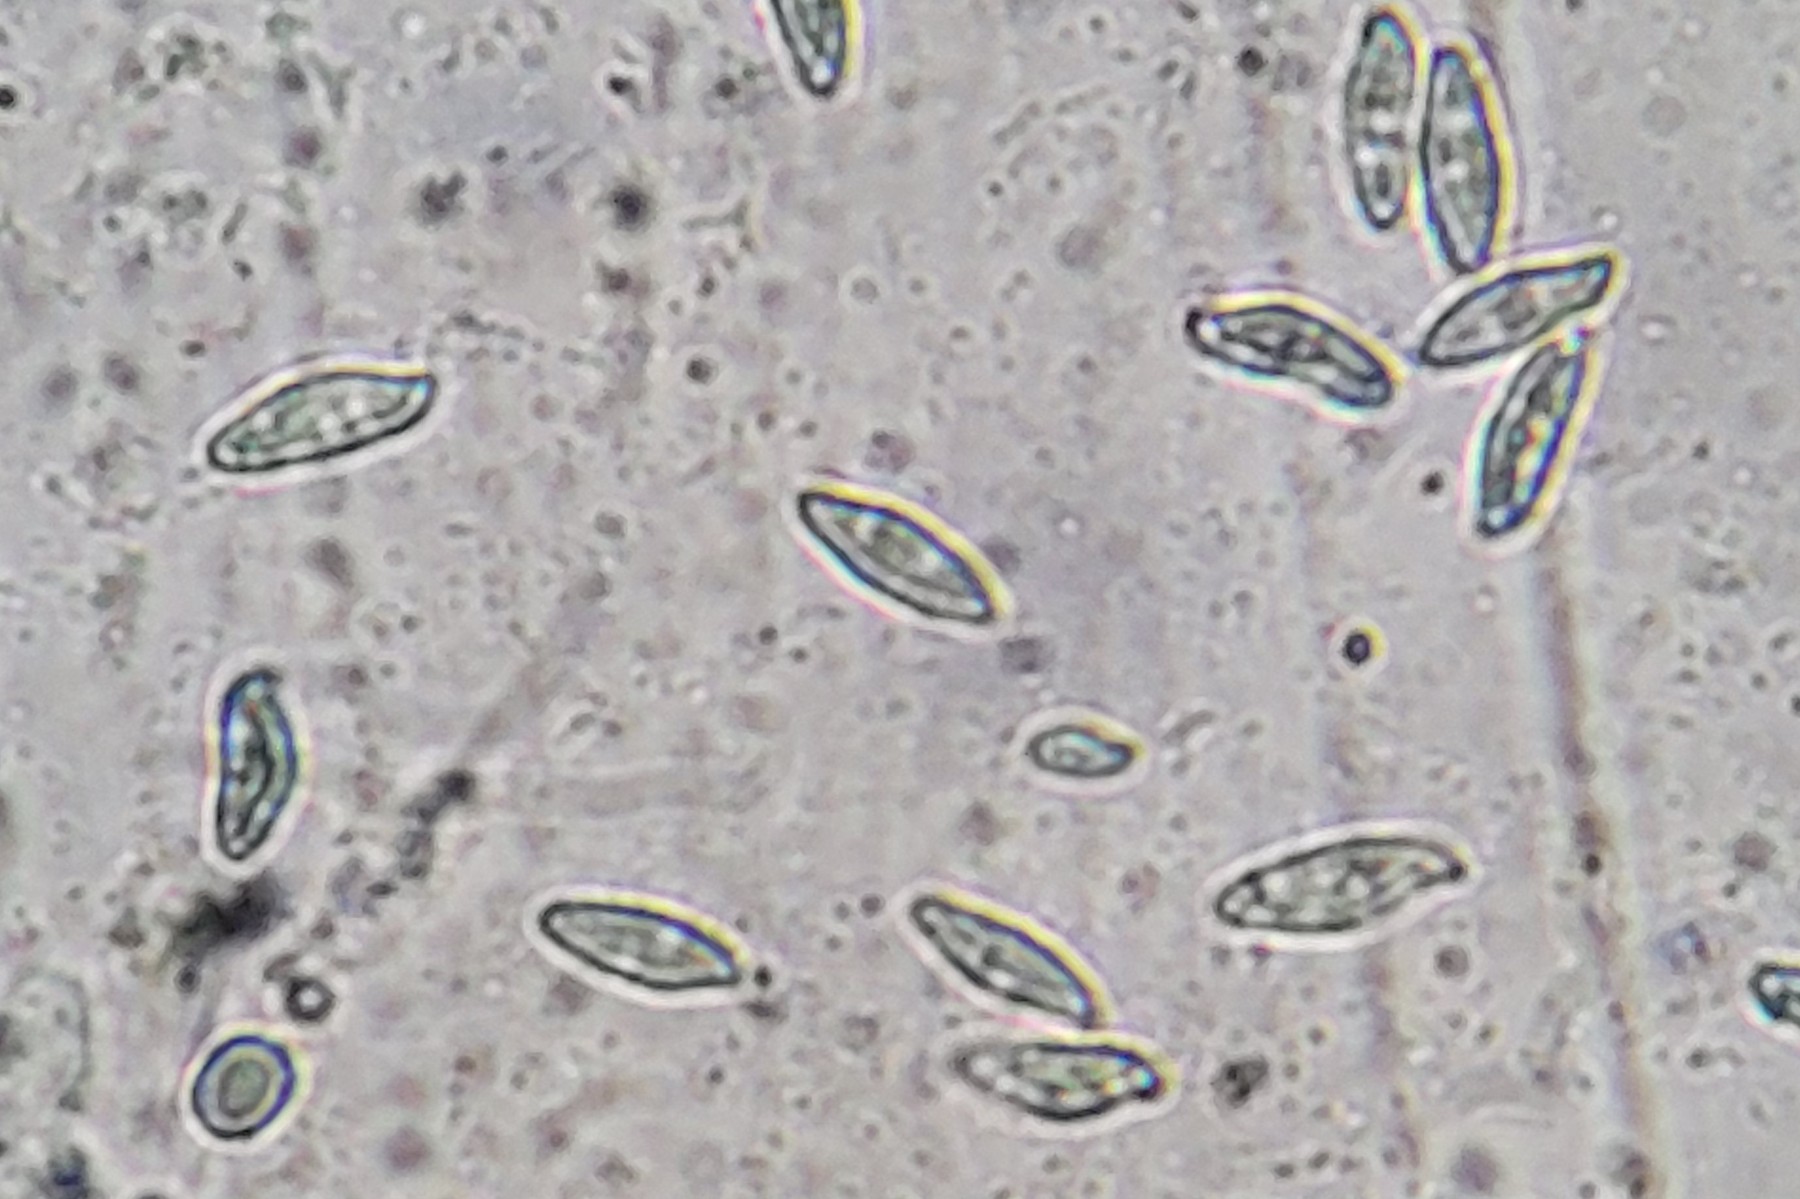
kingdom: Fungi
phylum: Basidiomycota
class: Agaricomycetes
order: Agaricales
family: Agaricaceae
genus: Lepiota
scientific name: Lepiota magnispora
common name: gulfnugget parasolhat
